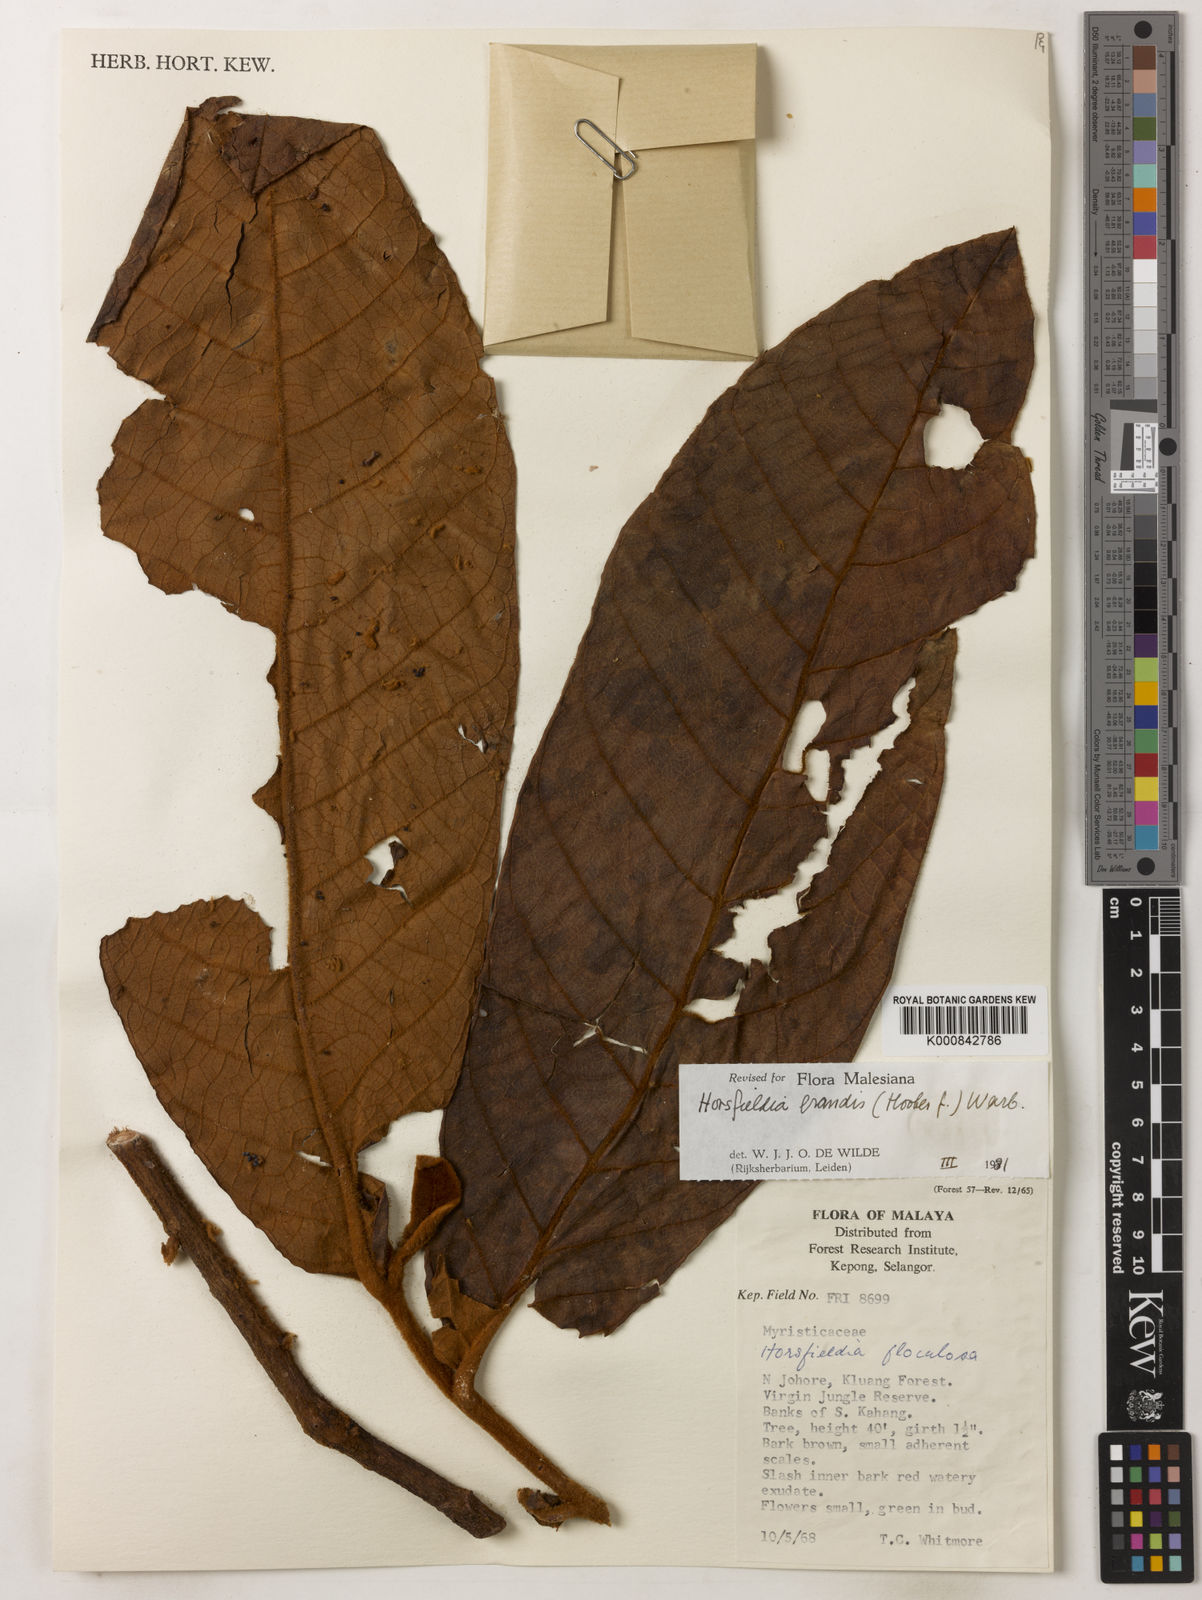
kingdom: Plantae
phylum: Tracheophyta
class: Magnoliopsida
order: Magnoliales
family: Myristicaceae
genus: Horsfieldia
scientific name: Horsfieldia grandis
